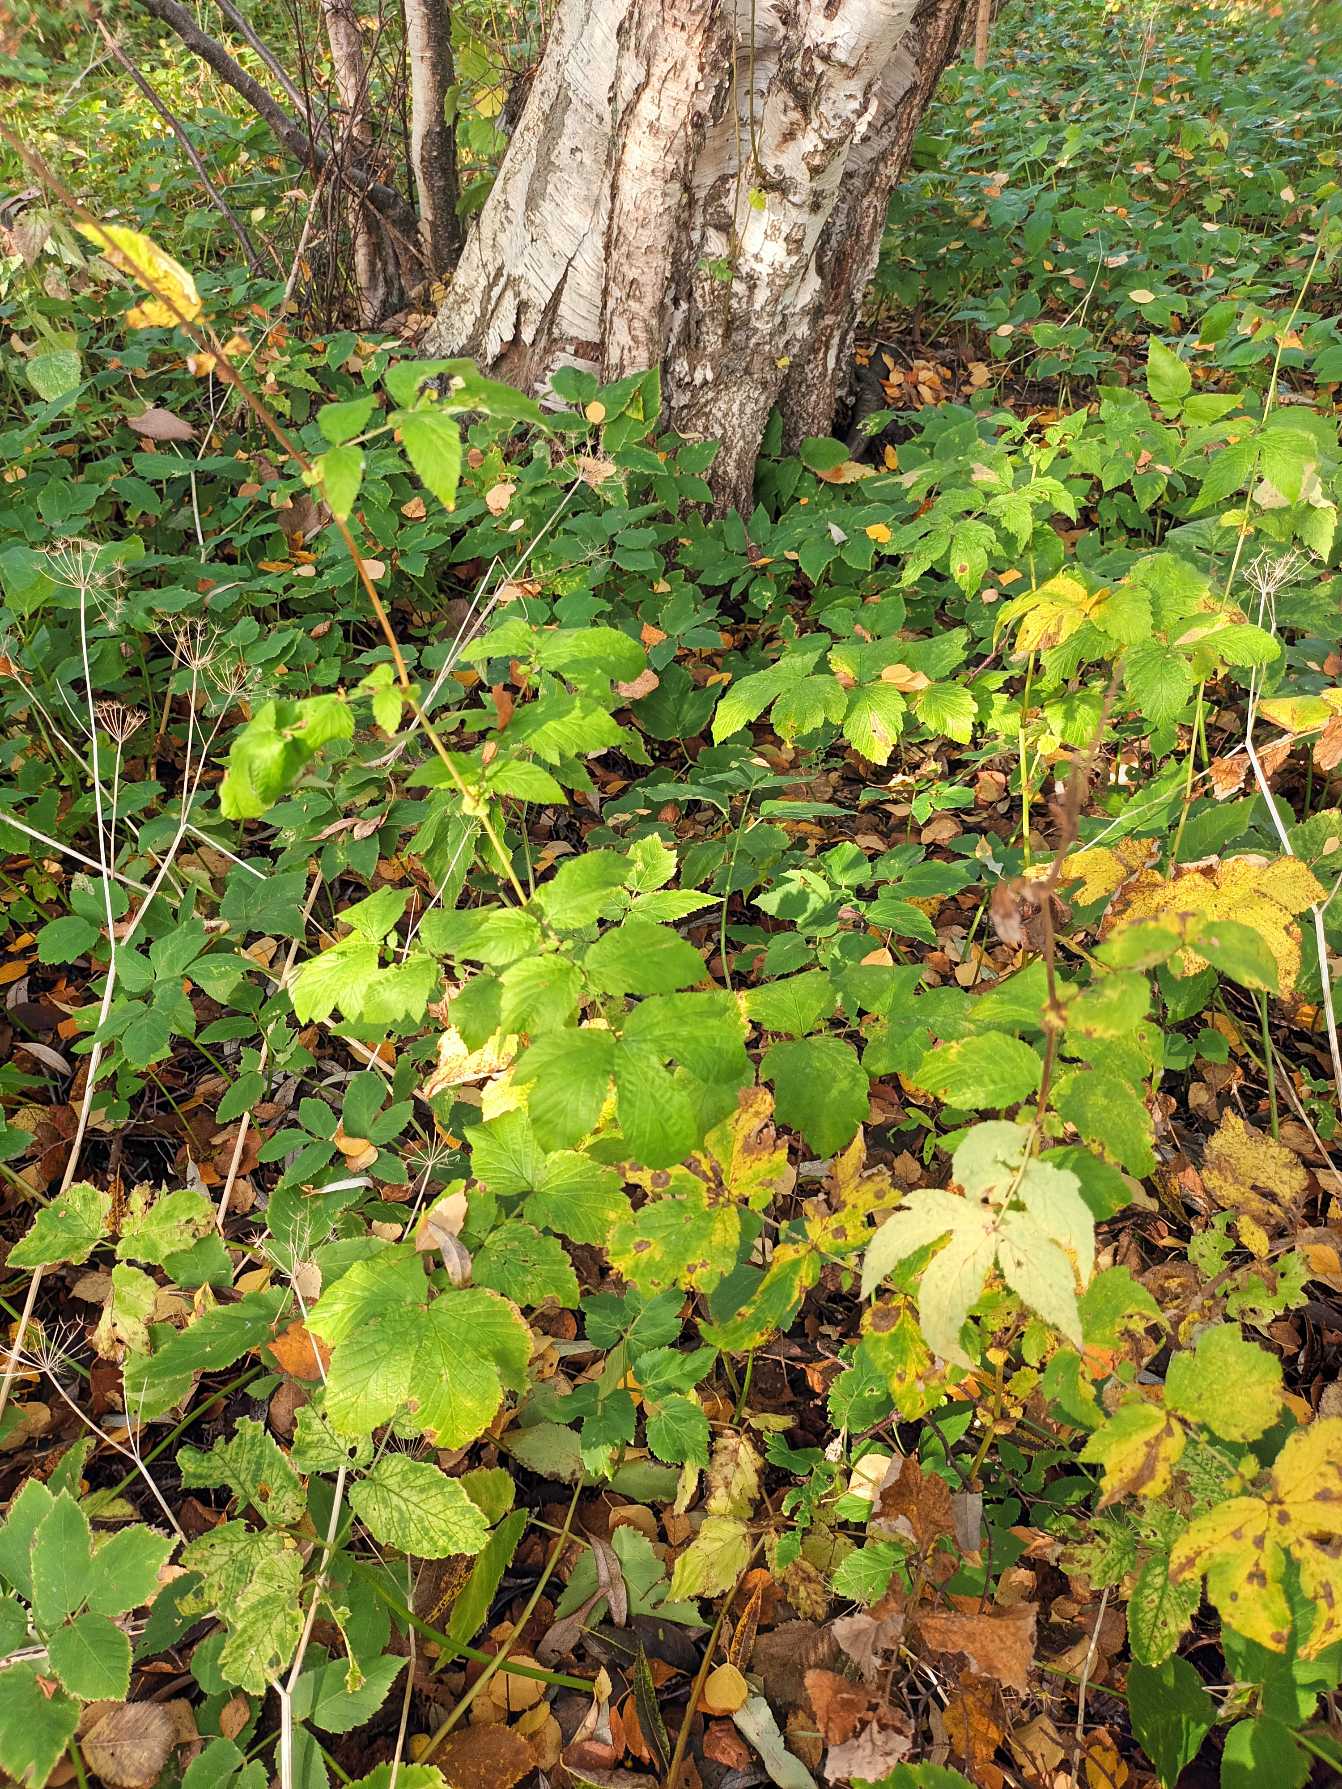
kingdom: Plantae
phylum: Tracheophyta
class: Magnoliopsida
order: Rosales
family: Rosaceae
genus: Filipendula
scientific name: Filipendula ulmaria
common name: Almindelig mjødurt
